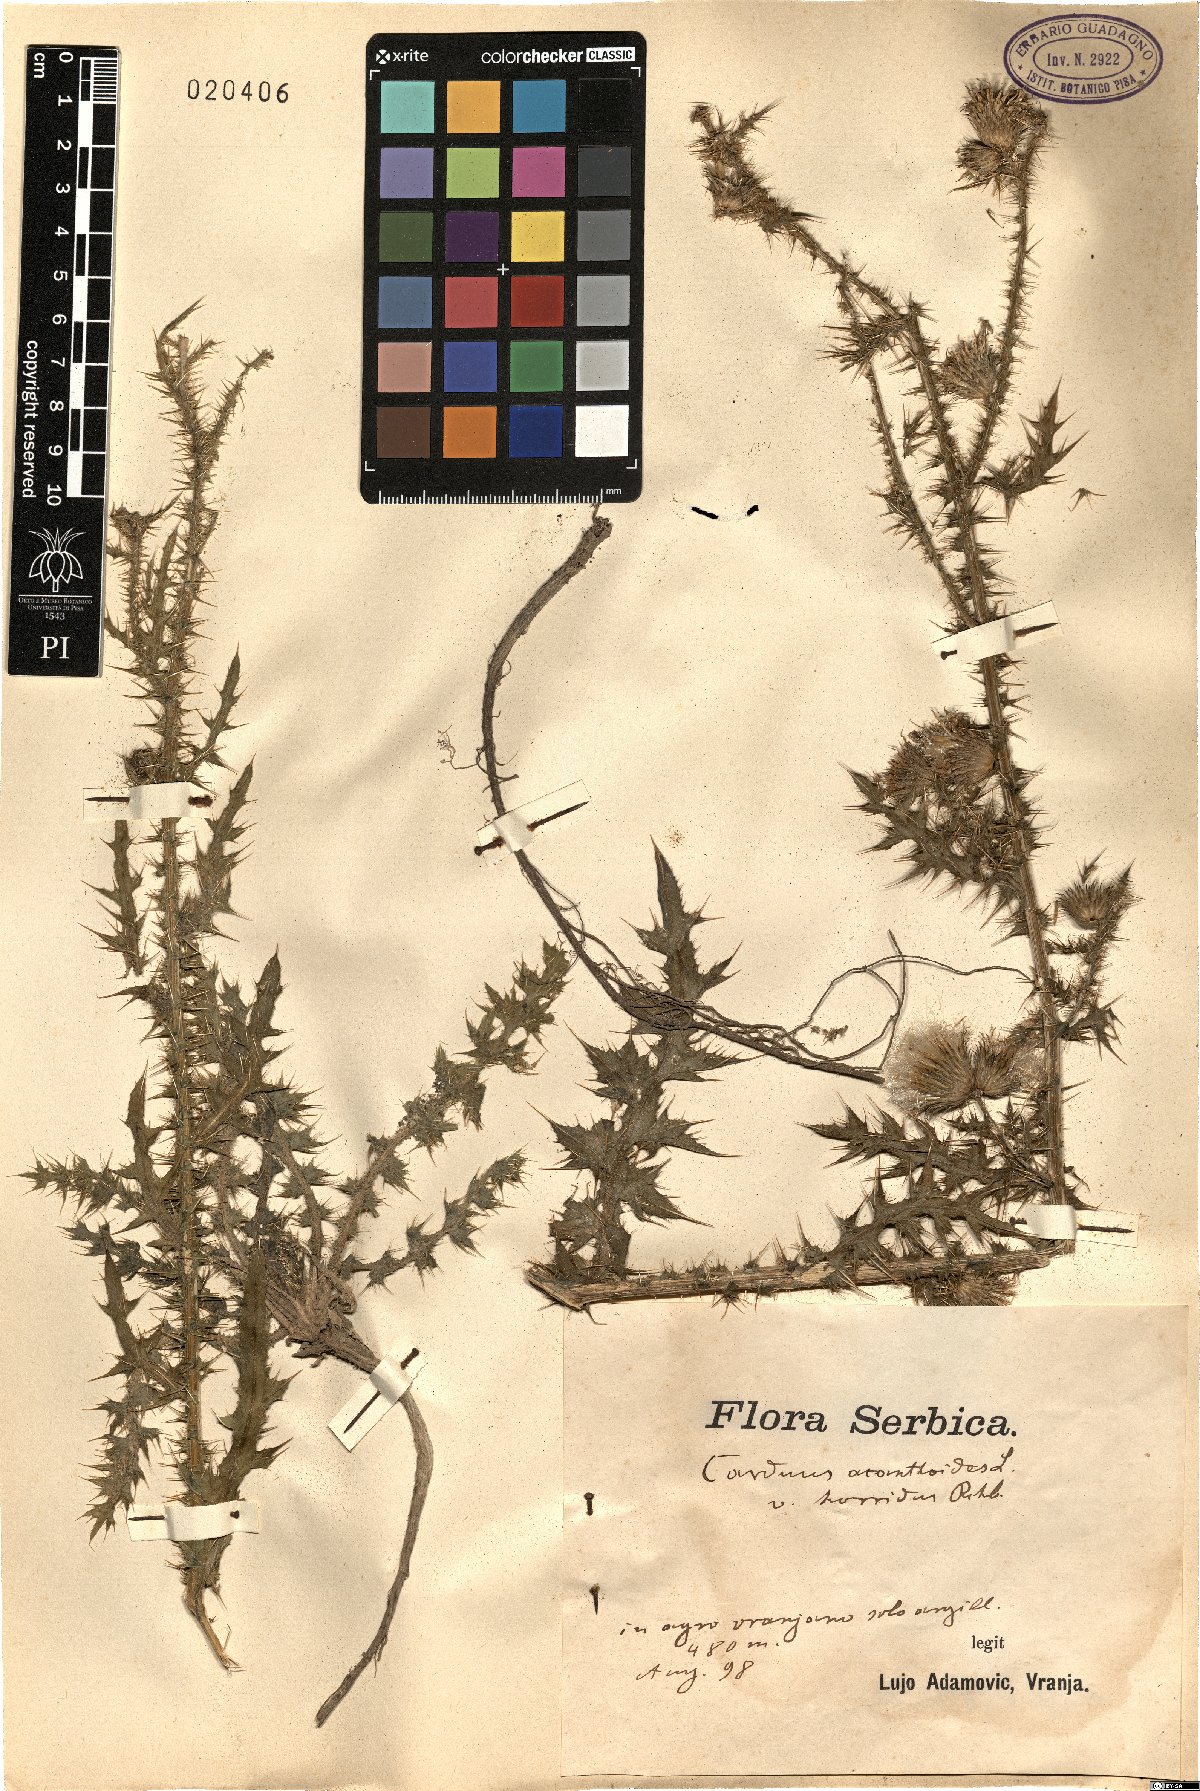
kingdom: Plantae
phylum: Tracheophyta
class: Magnoliopsida
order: Asterales
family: Asteraceae
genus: Carduus
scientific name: Carduus acanthoides
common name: Plumeless thistle
